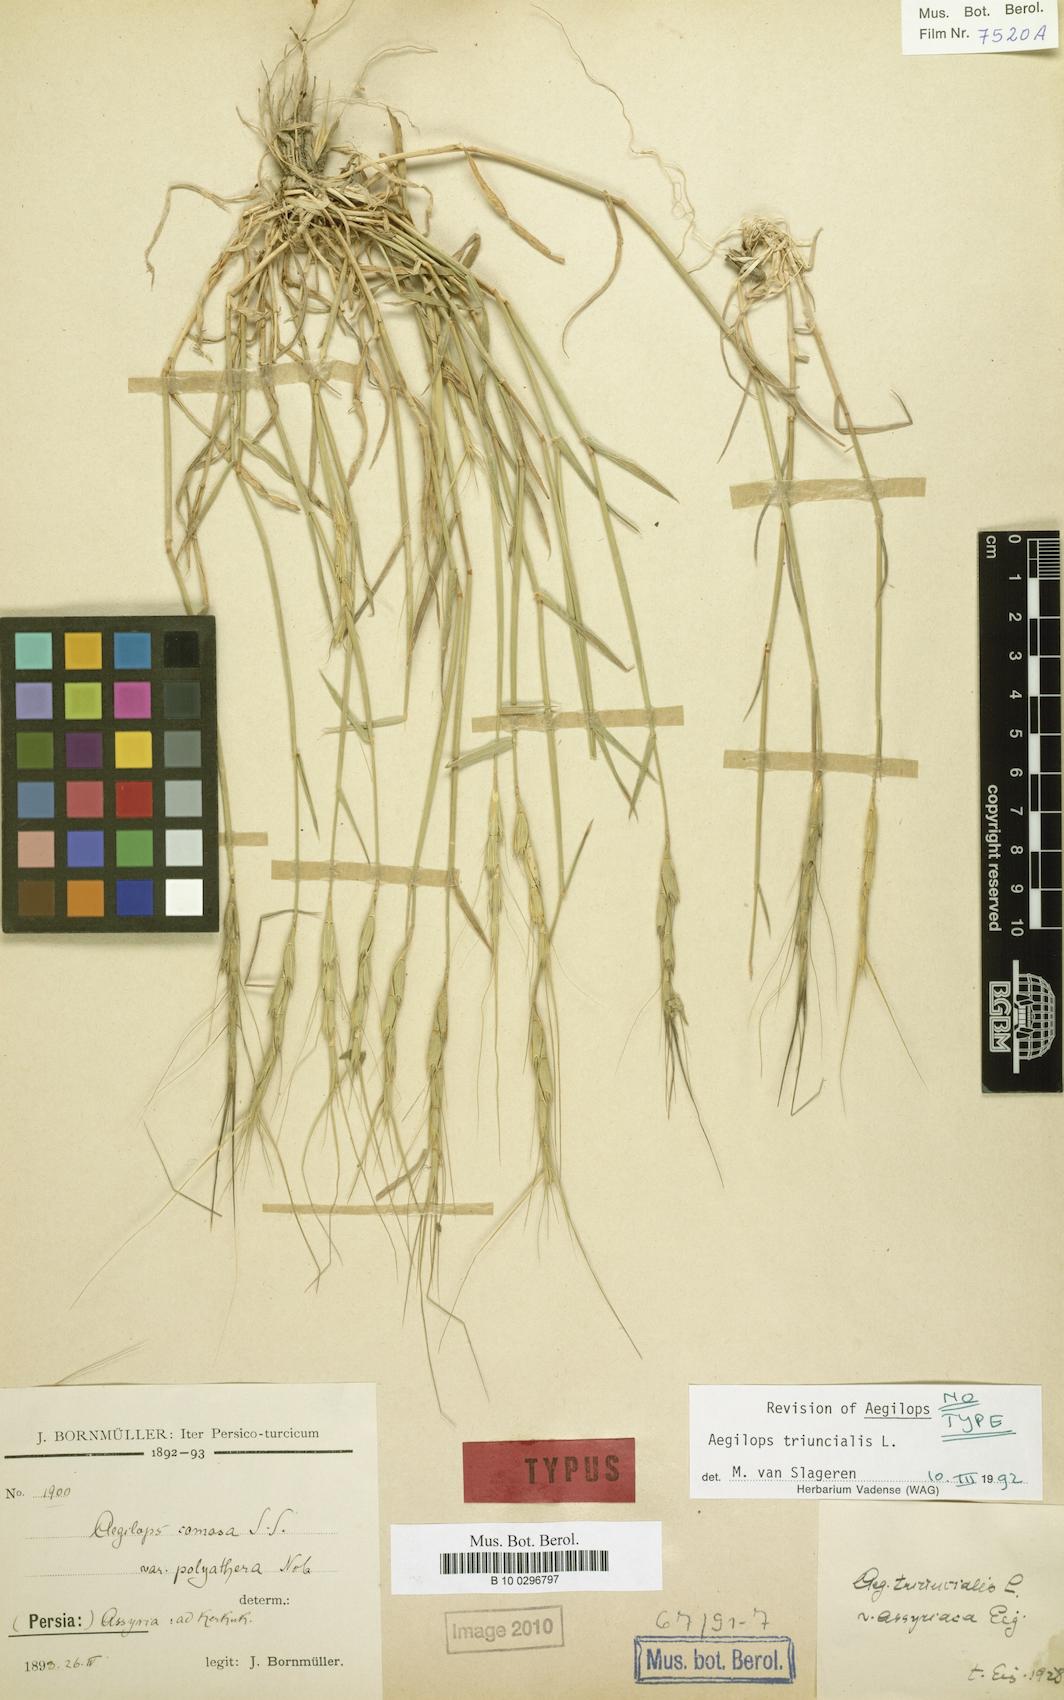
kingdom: Plantae
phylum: Tracheophyta
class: Liliopsida
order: Poales
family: Poaceae
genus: Aegilops
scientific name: Aegilops triuncialis
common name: Barb goat grass
